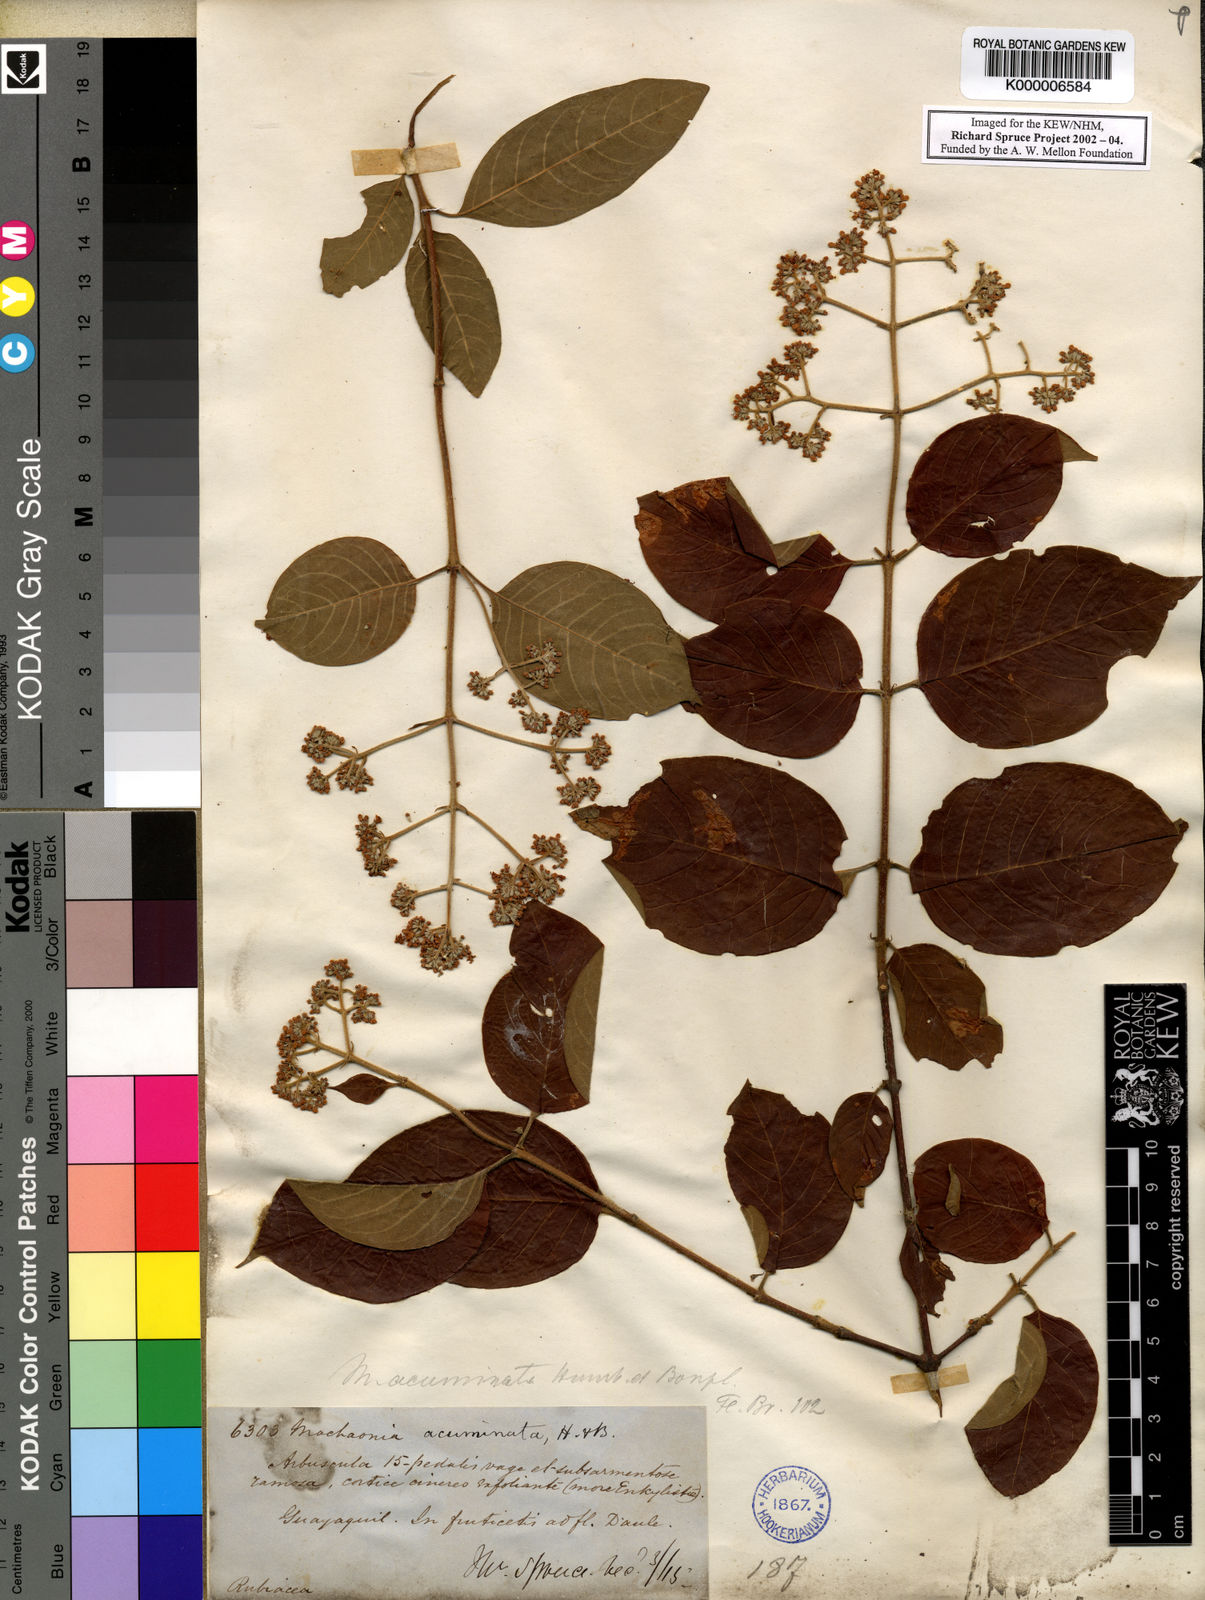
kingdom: Plantae
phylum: Tracheophyta
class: Magnoliopsida
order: Gentianales
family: Rubiaceae
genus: Machaonia
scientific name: Machaonia acuminata
